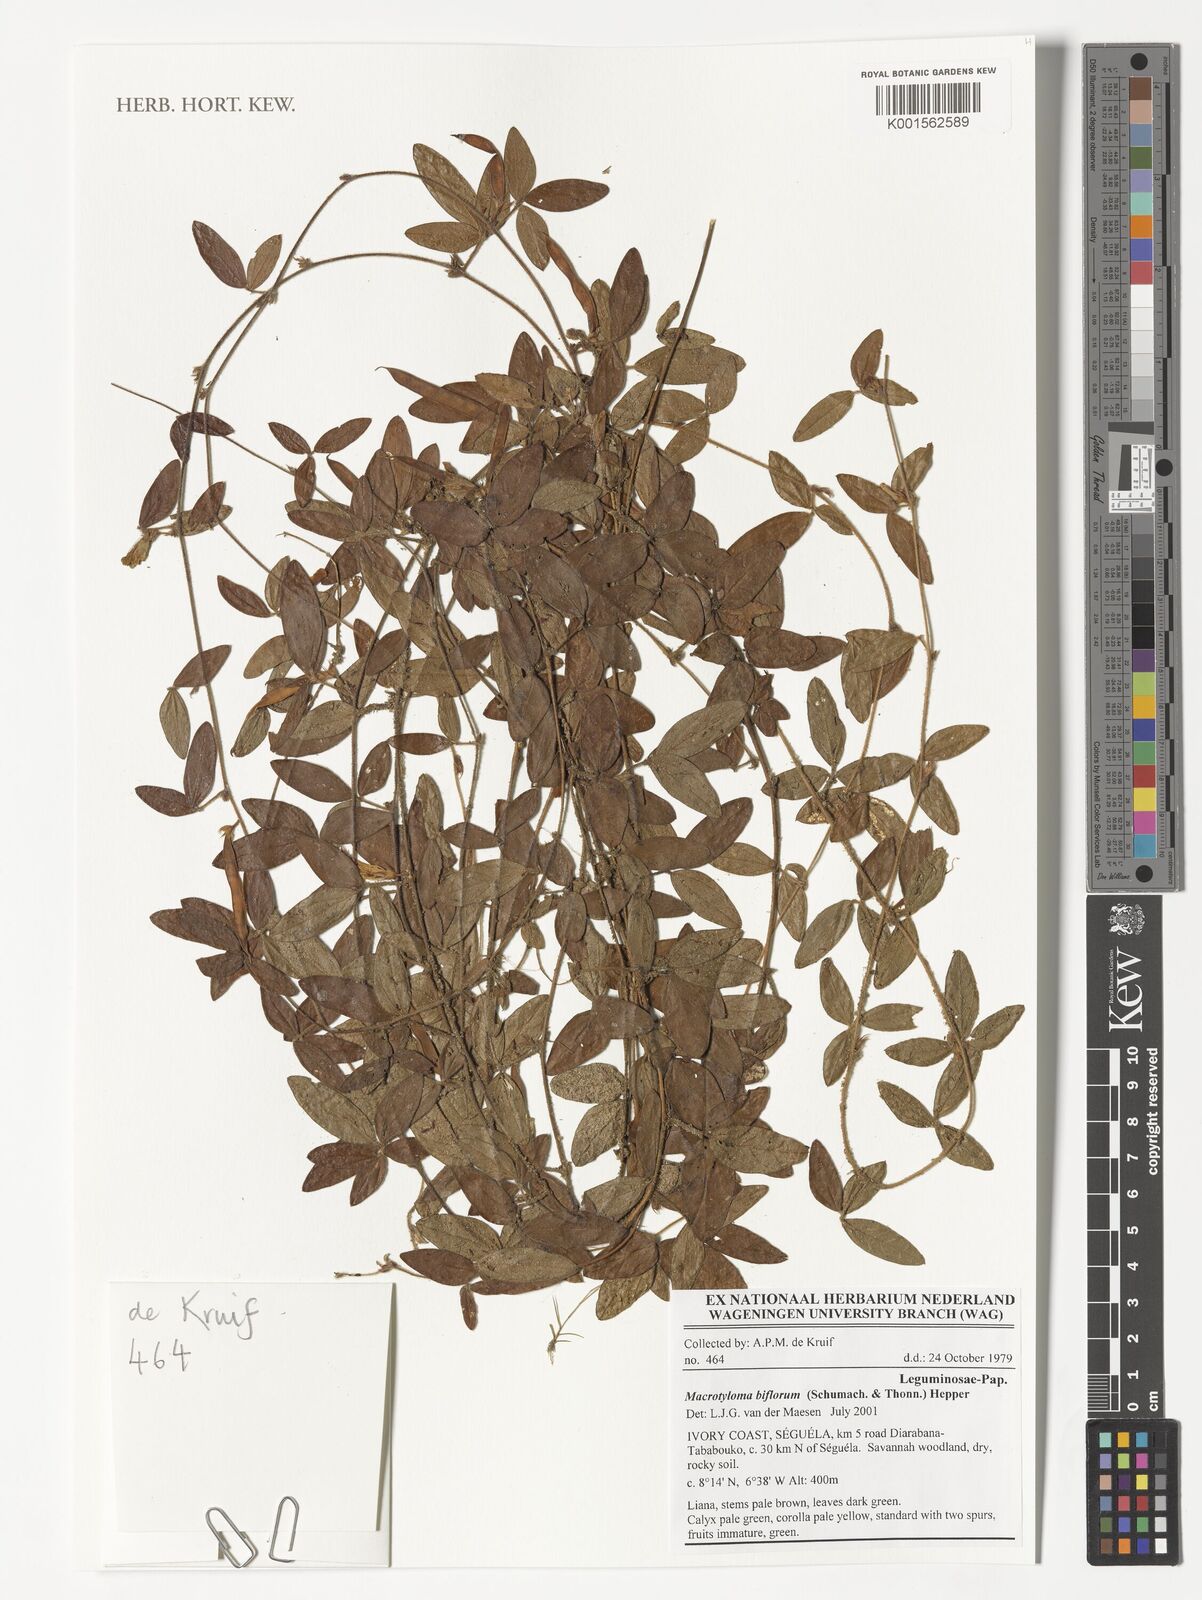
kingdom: Plantae
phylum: Tracheophyta
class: Magnoliopsida
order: Fabales
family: Fabaceae
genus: Macrotyloma
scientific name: Macrotyloma biflorum
